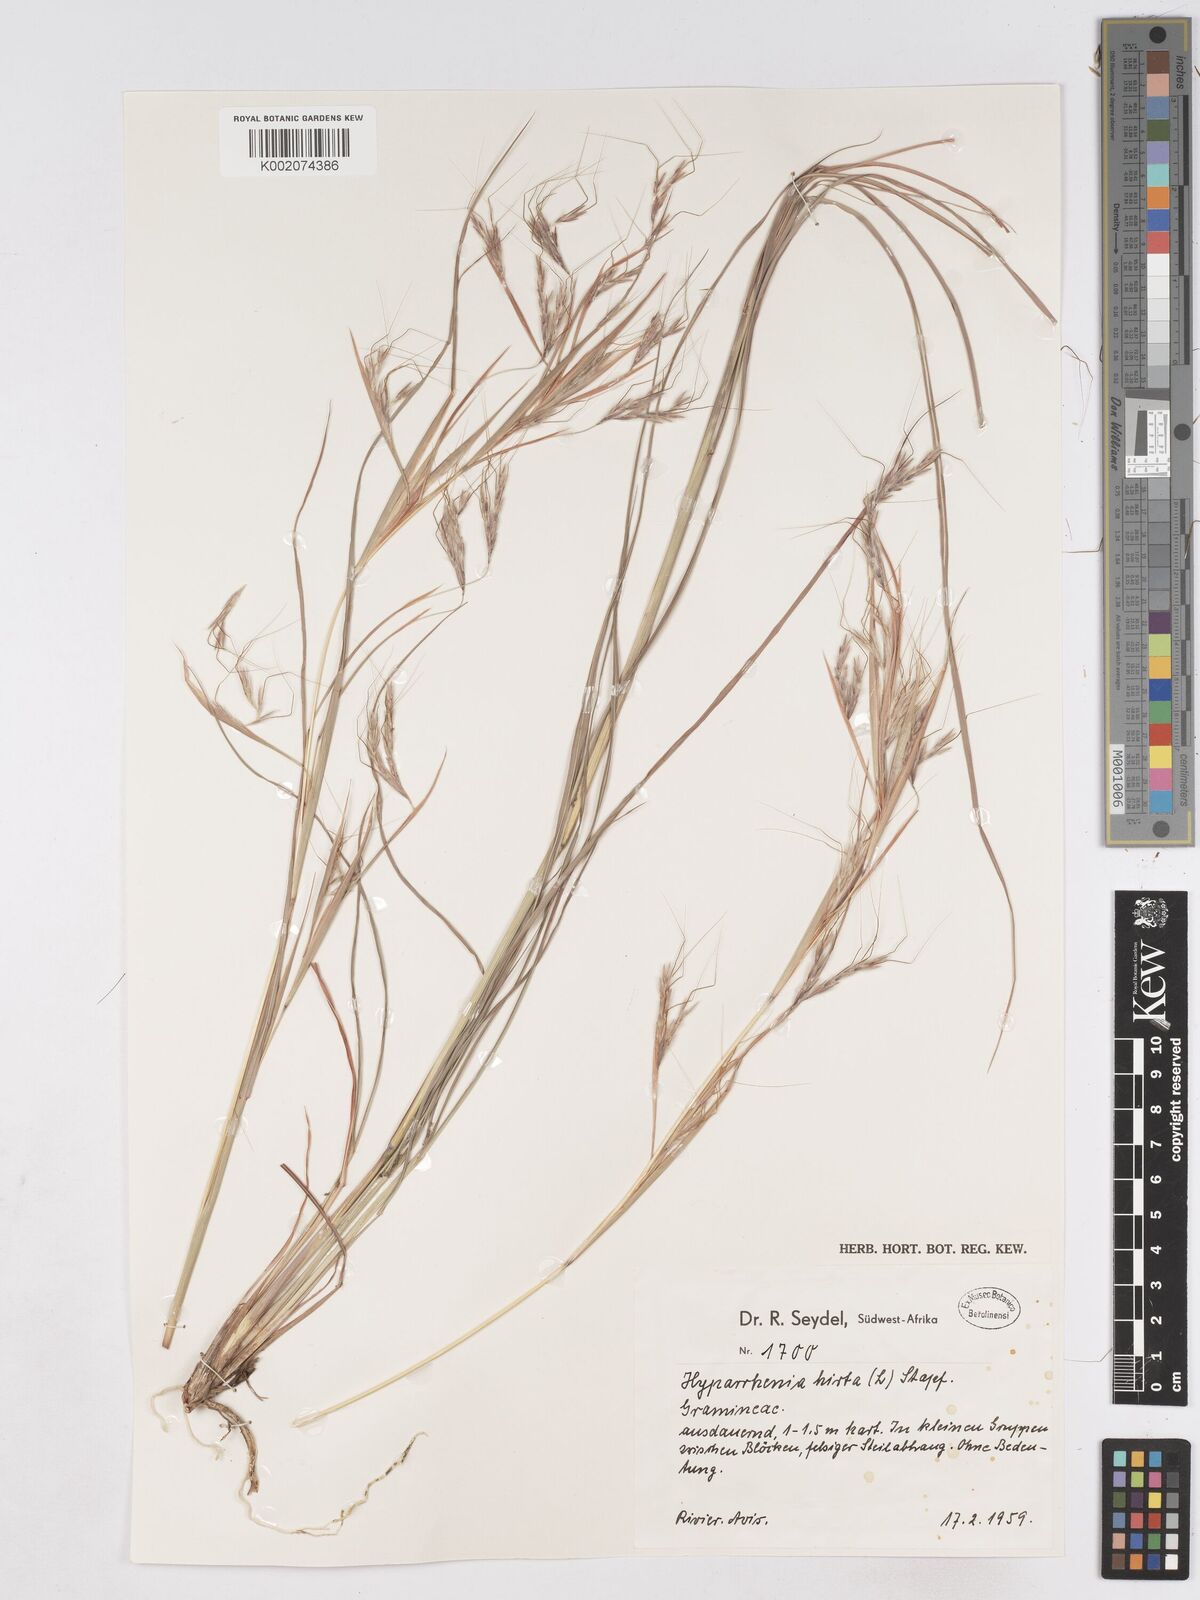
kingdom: Plantae
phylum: Tracheophyta
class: Liliopsida
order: Poales
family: Poaceae
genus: Hyparrhenia
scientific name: Hyparrhenia hirta
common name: Thatching grass
